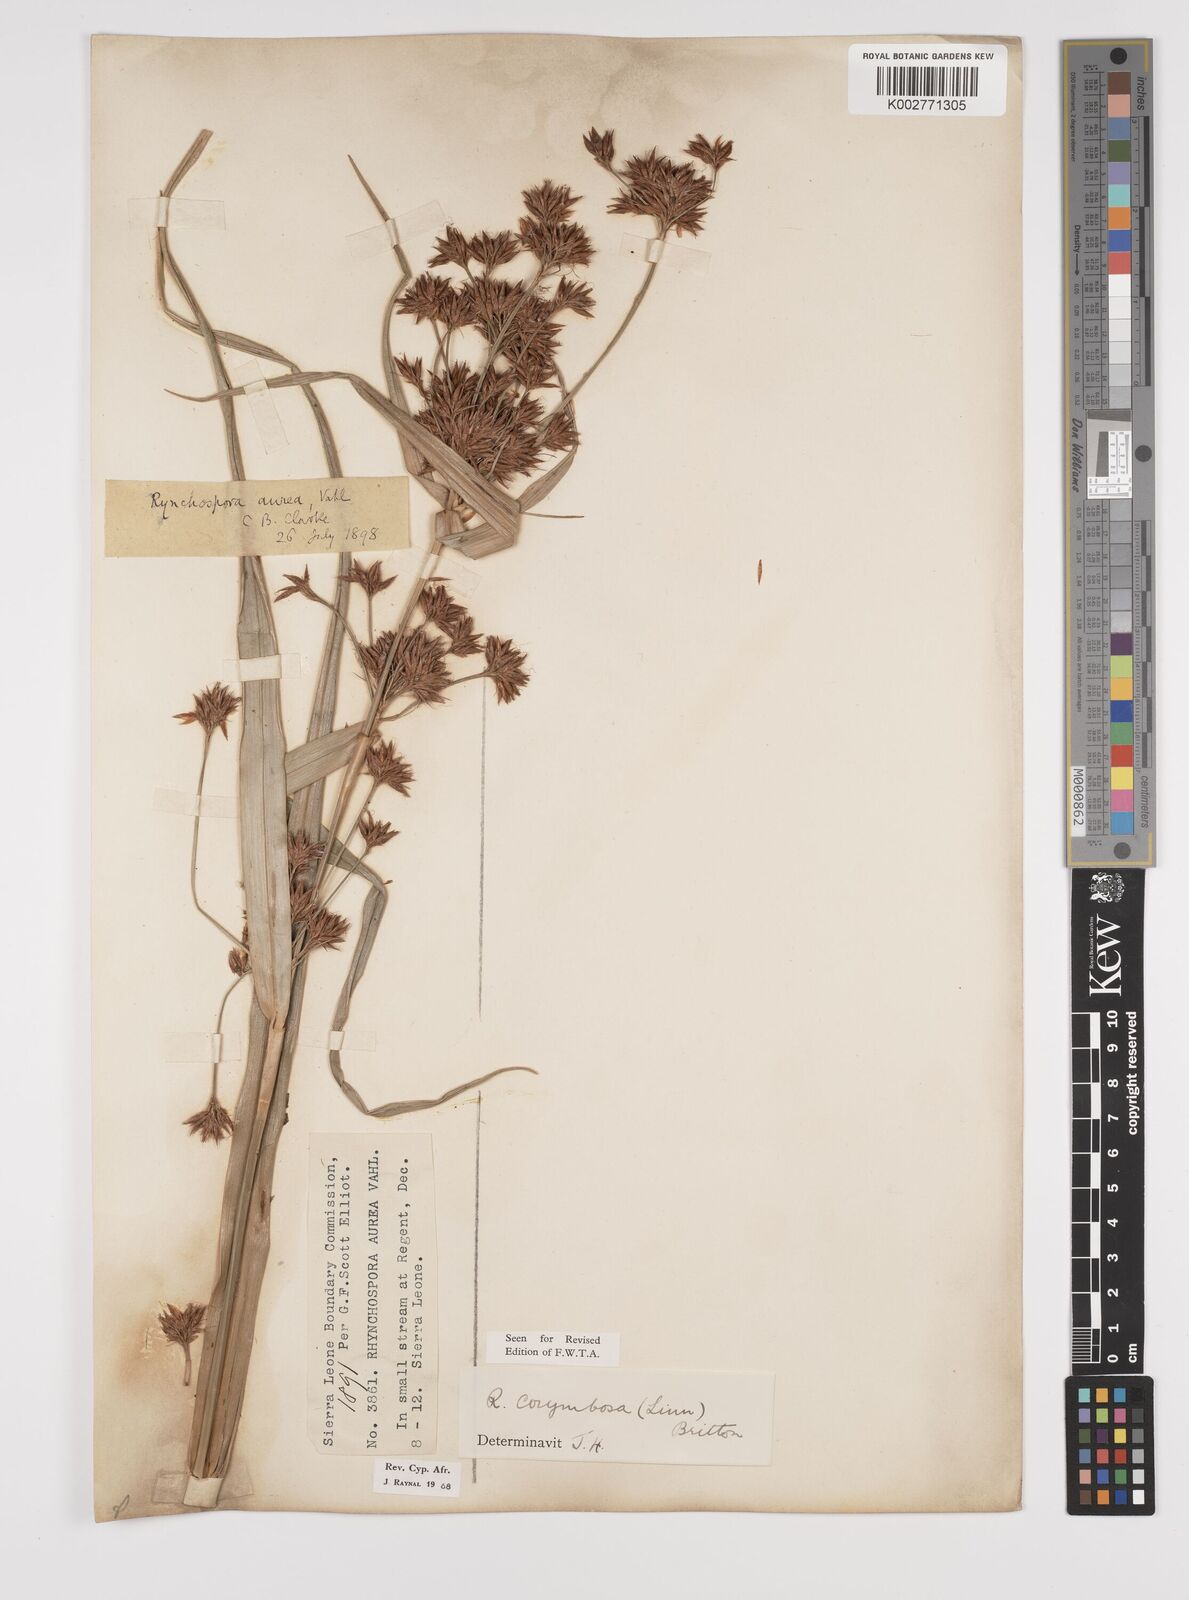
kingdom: Plantae
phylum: Tracheophyta
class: Liliopsida
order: Poales
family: Cyperaceae
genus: Rhynchospora
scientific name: Rhynchospora corymbosa
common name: Golden beak sedge
